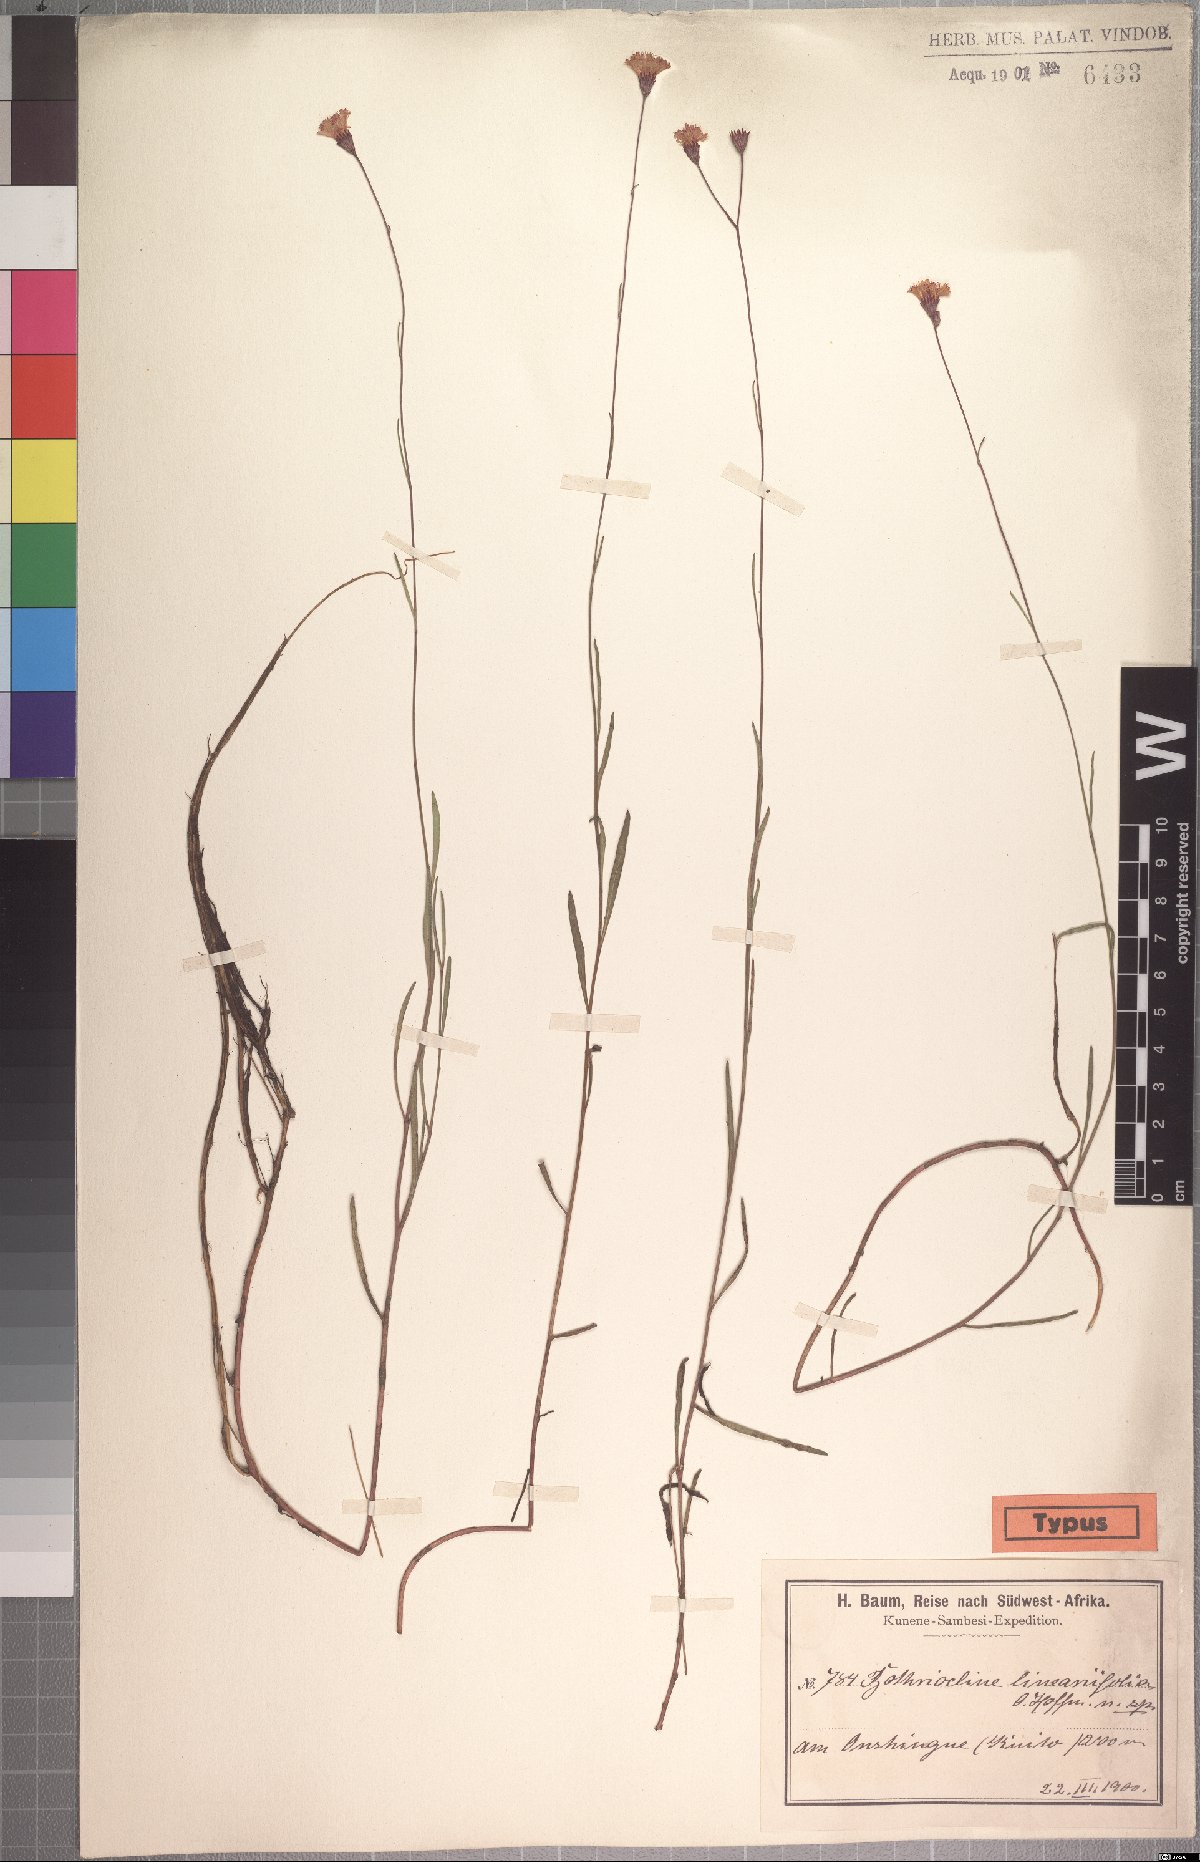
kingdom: Plantae
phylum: Tracheophyta
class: Magnoliopsida
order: Asterales
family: Asteraceae
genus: Erlangea
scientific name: Erlangea linearifolia
